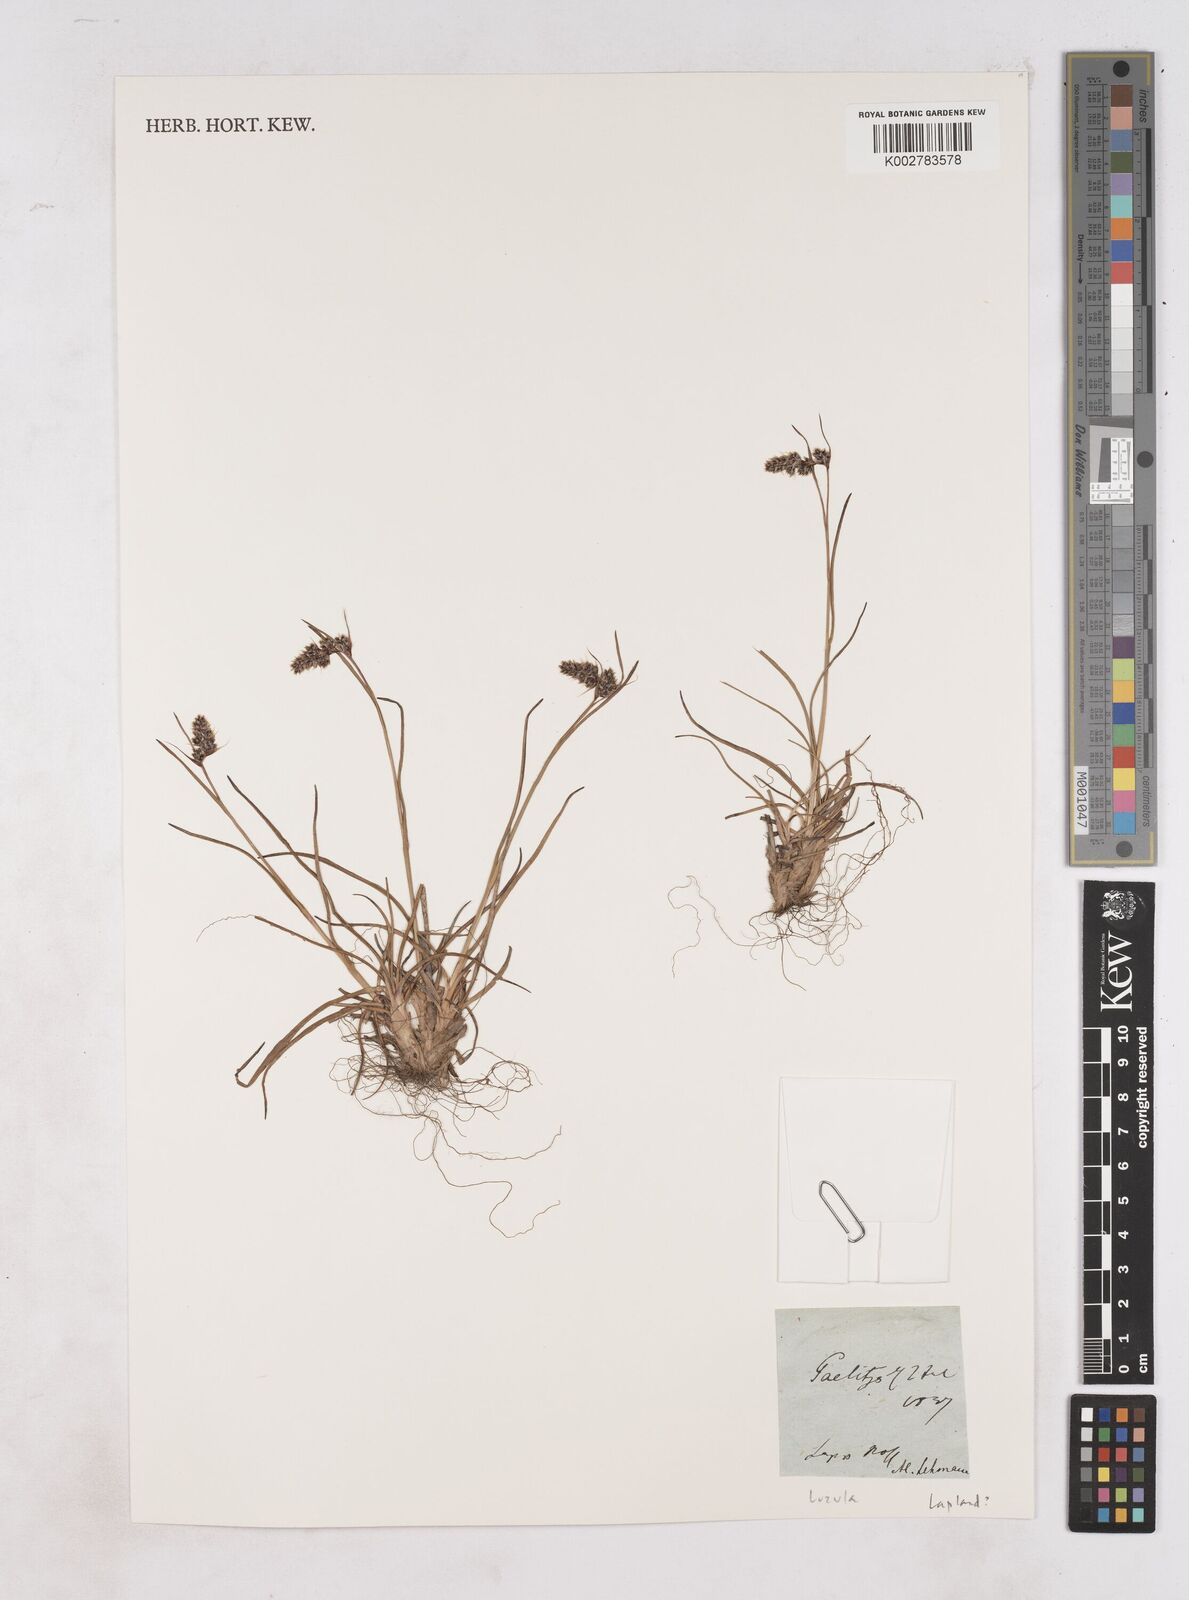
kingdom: Plantae
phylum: Tracheophyta
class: Liliopsida
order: Poales
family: Juncaceae
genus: Luzula
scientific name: Luzula
